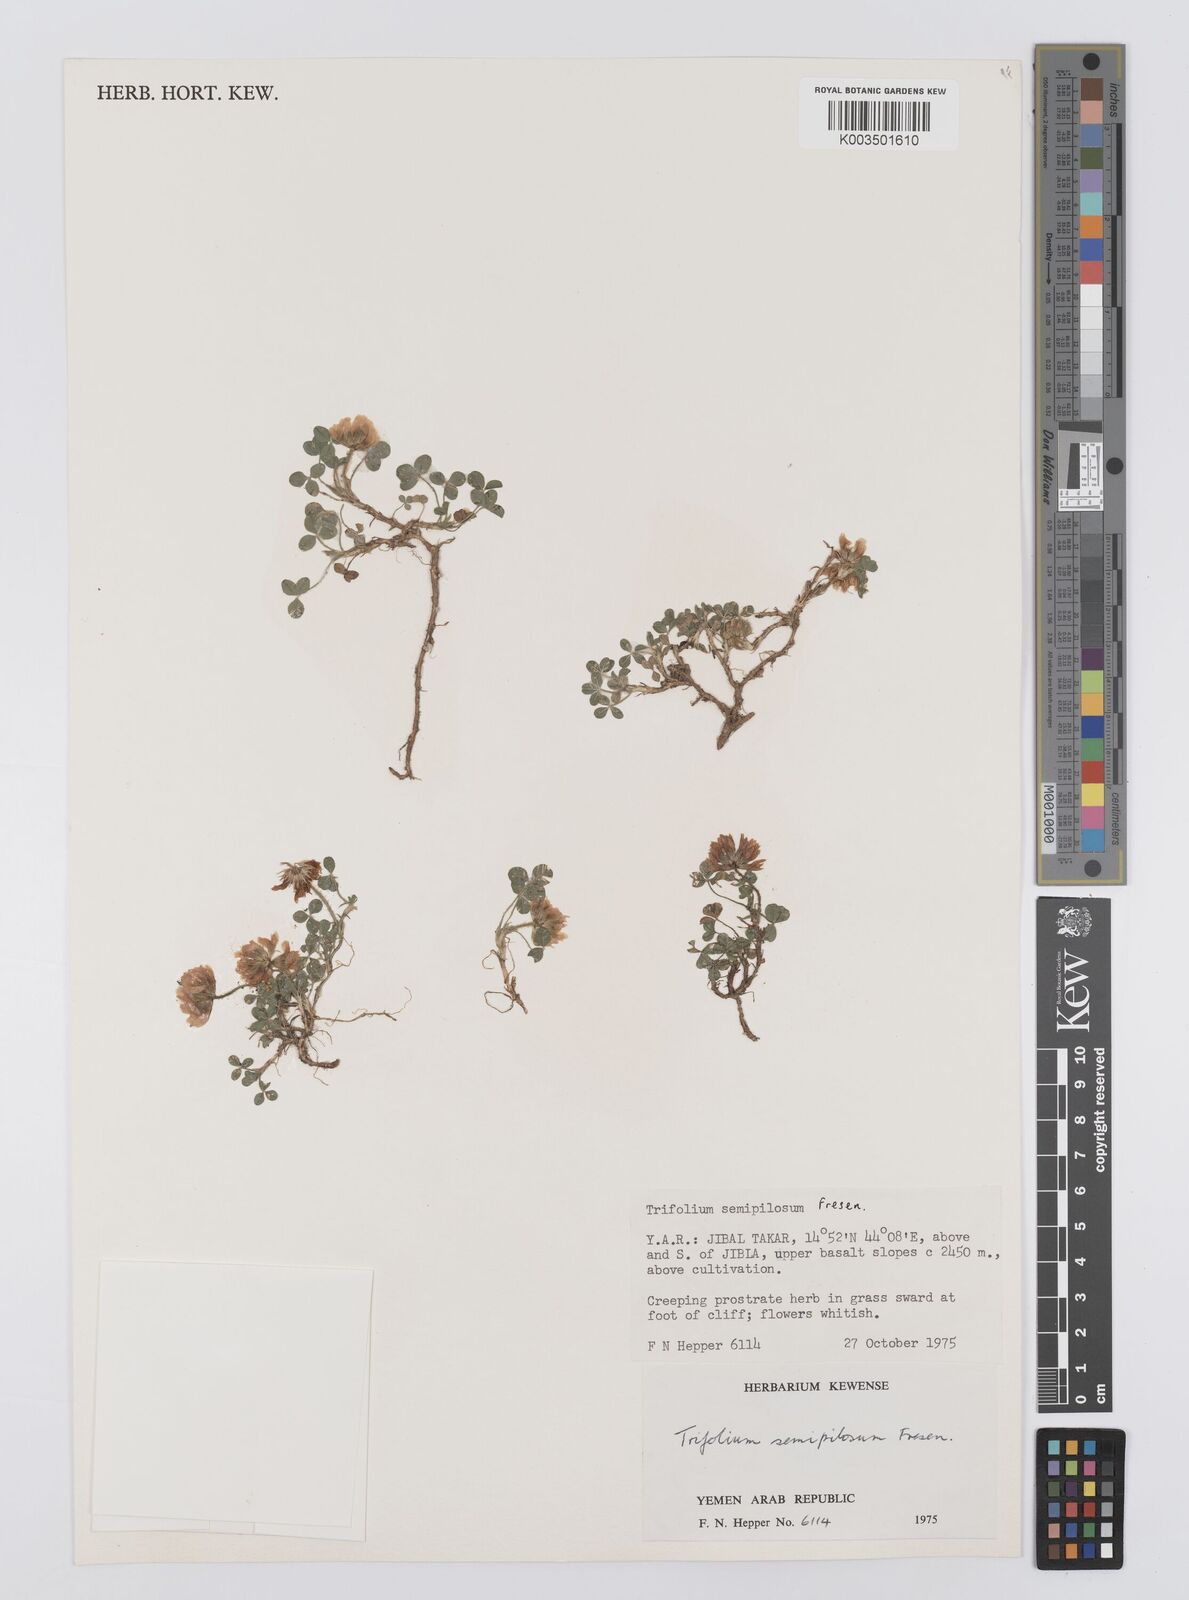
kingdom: Plantae
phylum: Tracheophyta
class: Magnoliopsida
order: Fabales
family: Fabaceae
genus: Trifolium
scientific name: Trifolium semipilosum
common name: Kenya clover
